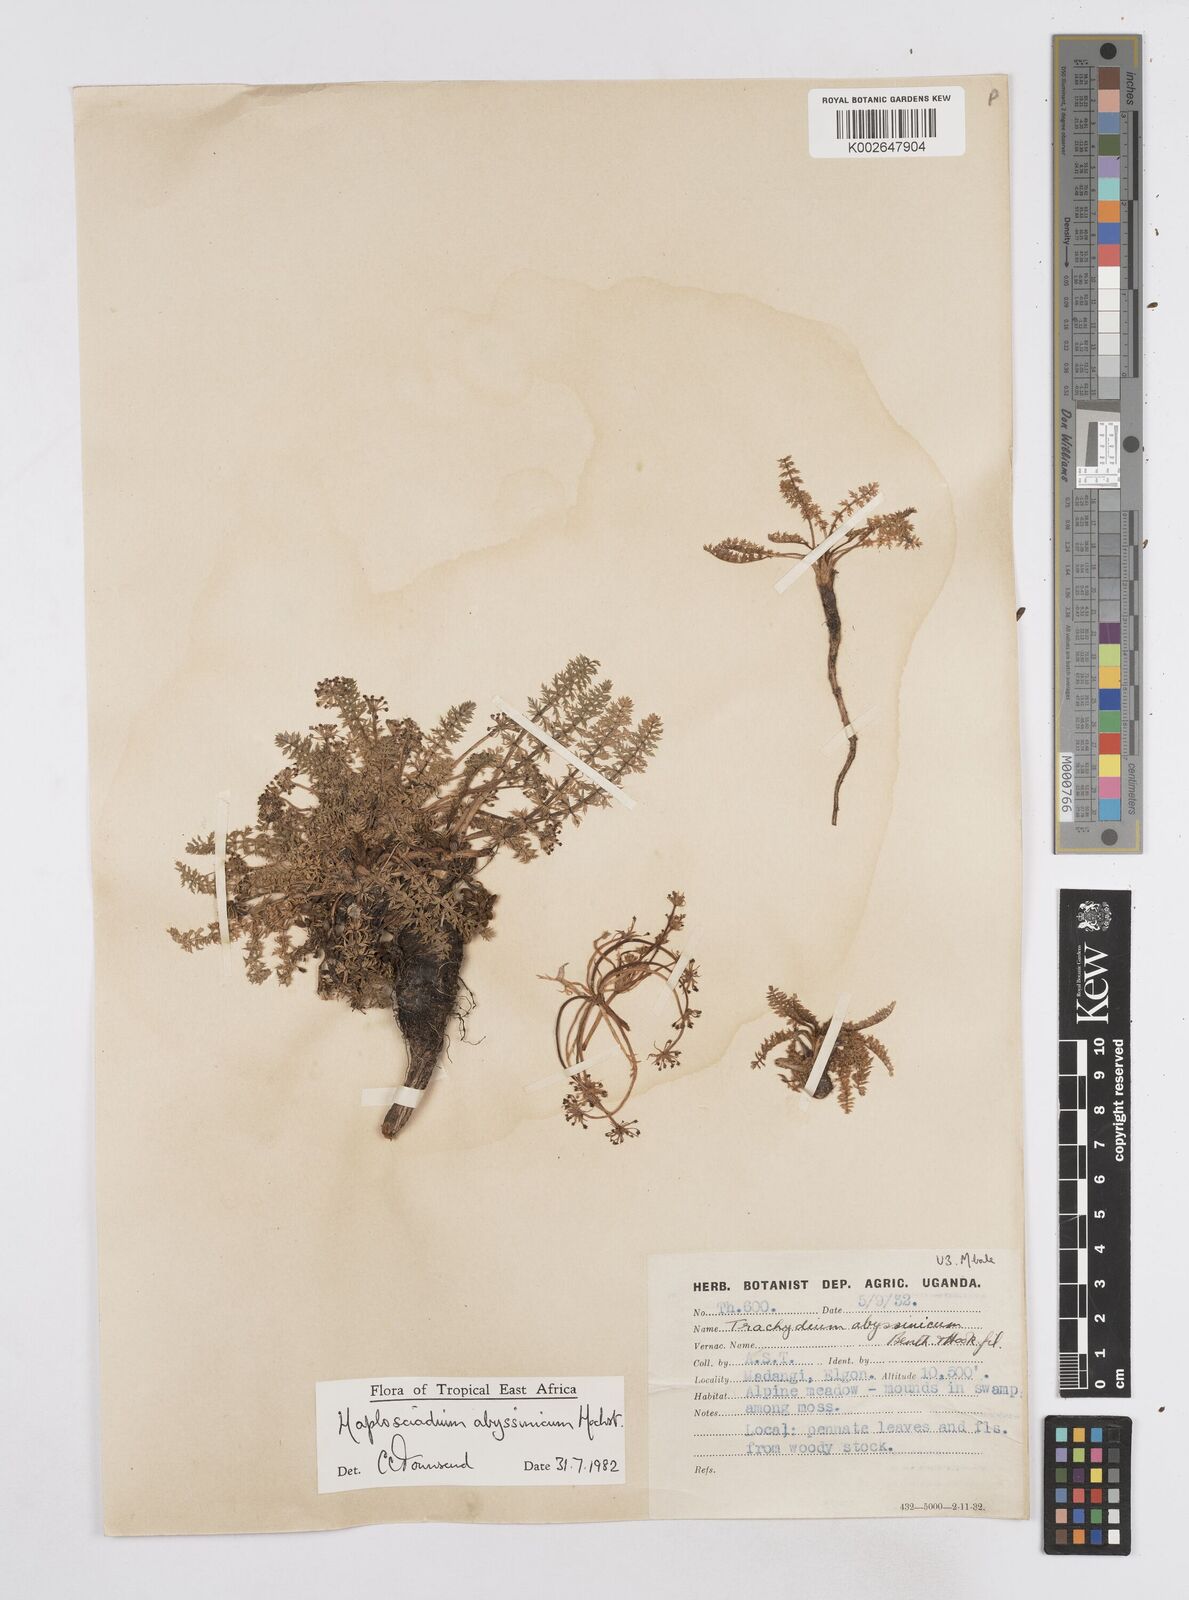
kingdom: Plantae
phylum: Tracheophyta
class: Magnoliopsida
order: Apiales
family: Apiaceae
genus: Haplosciadium
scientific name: Haplosciadium abyssinicum
